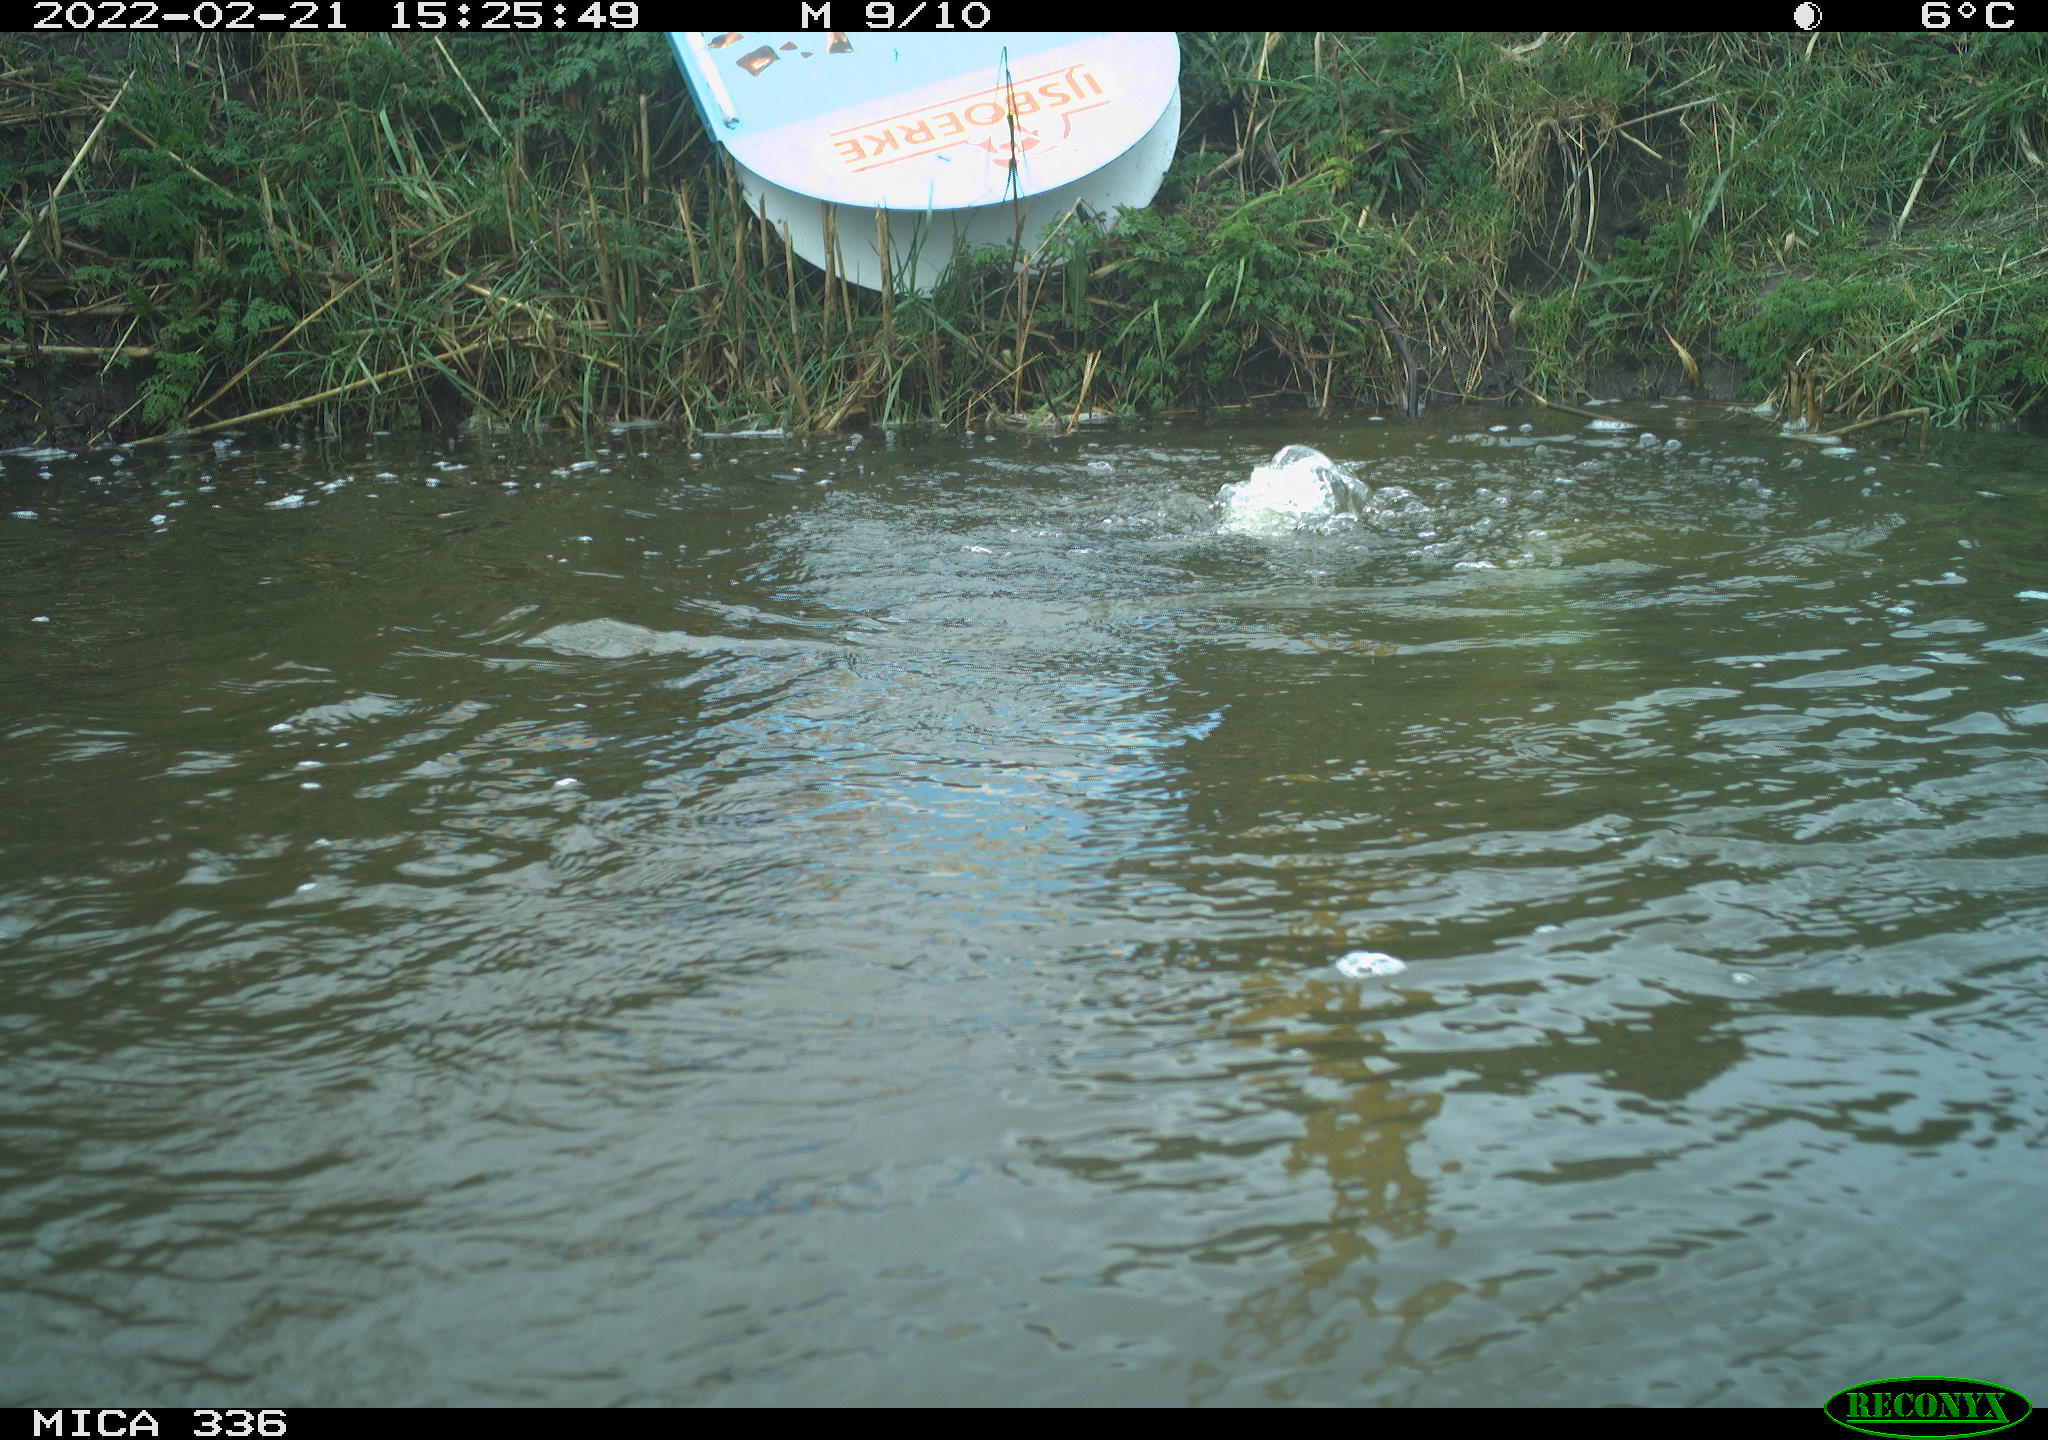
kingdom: Animalia
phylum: Chordata
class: Aves
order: Podicipediformes
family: Podicipedidae
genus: Podiceps
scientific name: Podiceps cristatus
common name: Great crested grebe
